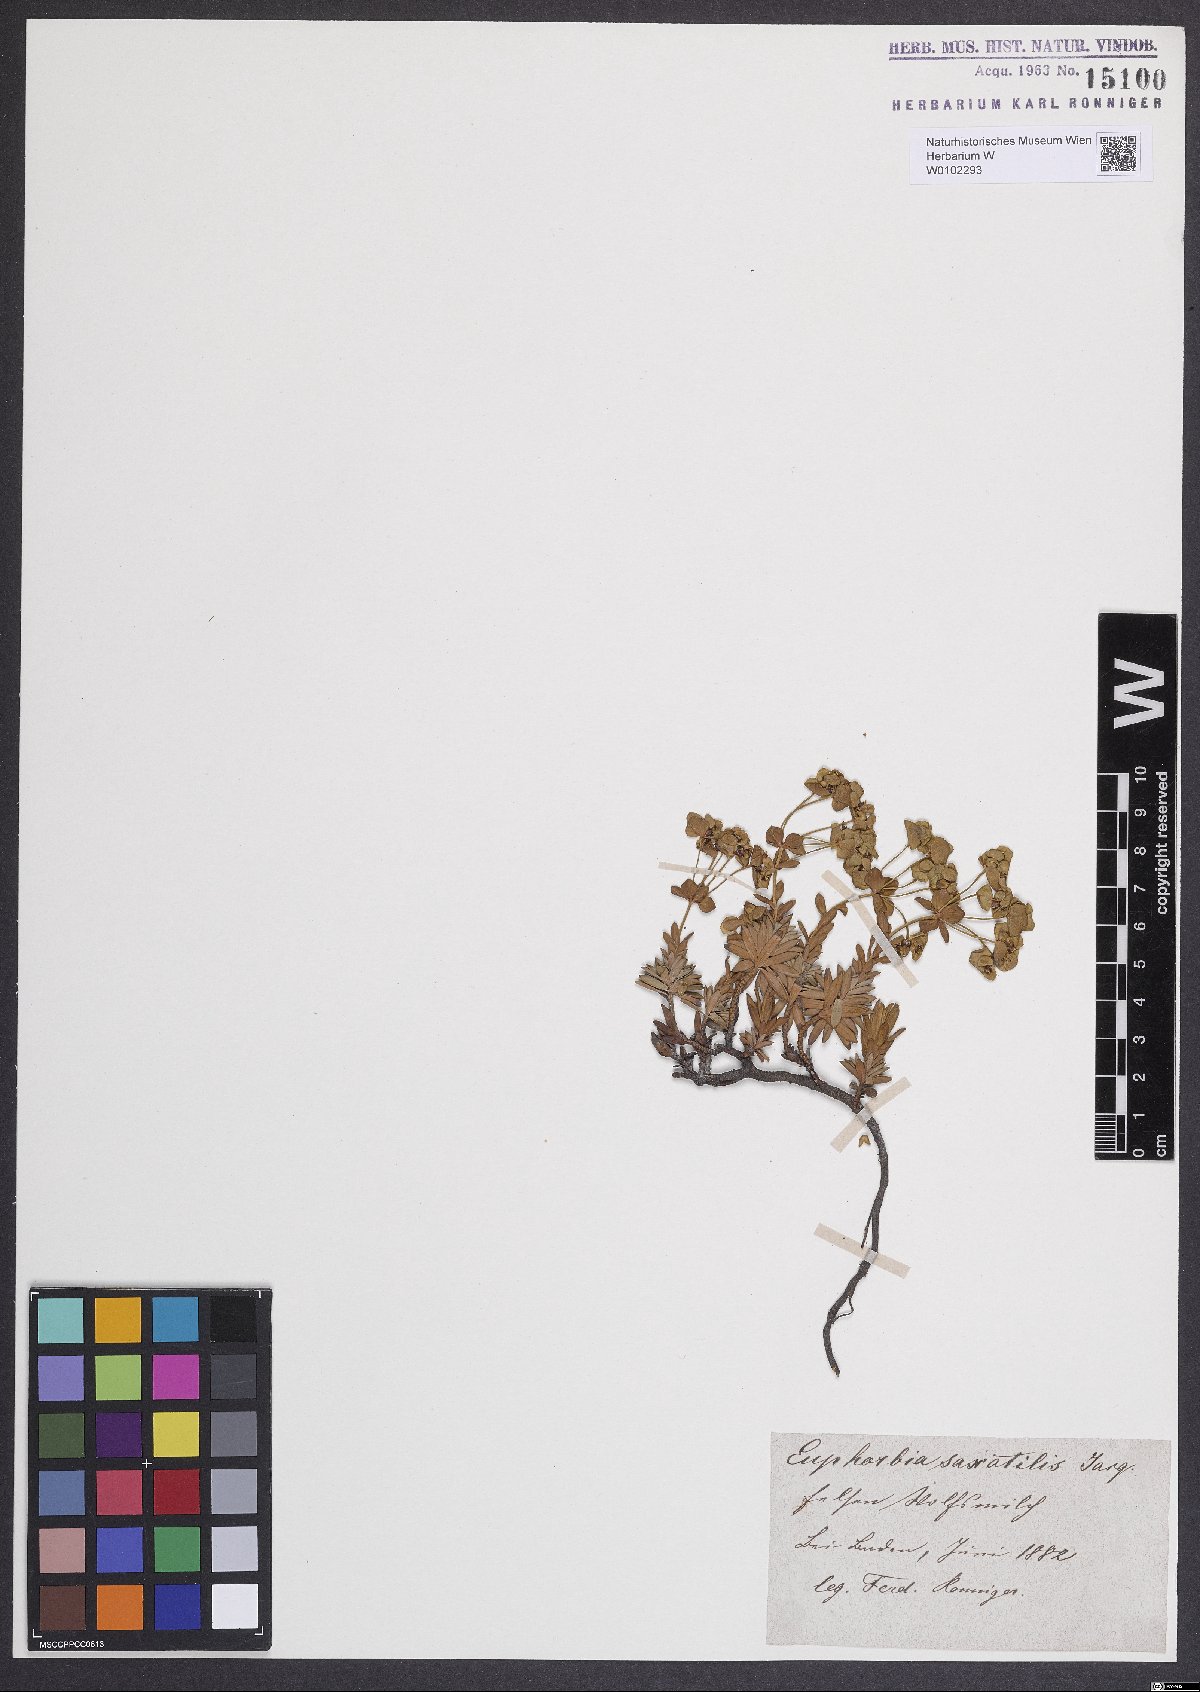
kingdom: Plantae
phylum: Tracheophyta
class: Magnoliopsida
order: Malpighiales
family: Euphorbiaceae
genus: Euphorbia
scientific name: Euphorbia saxatilis
